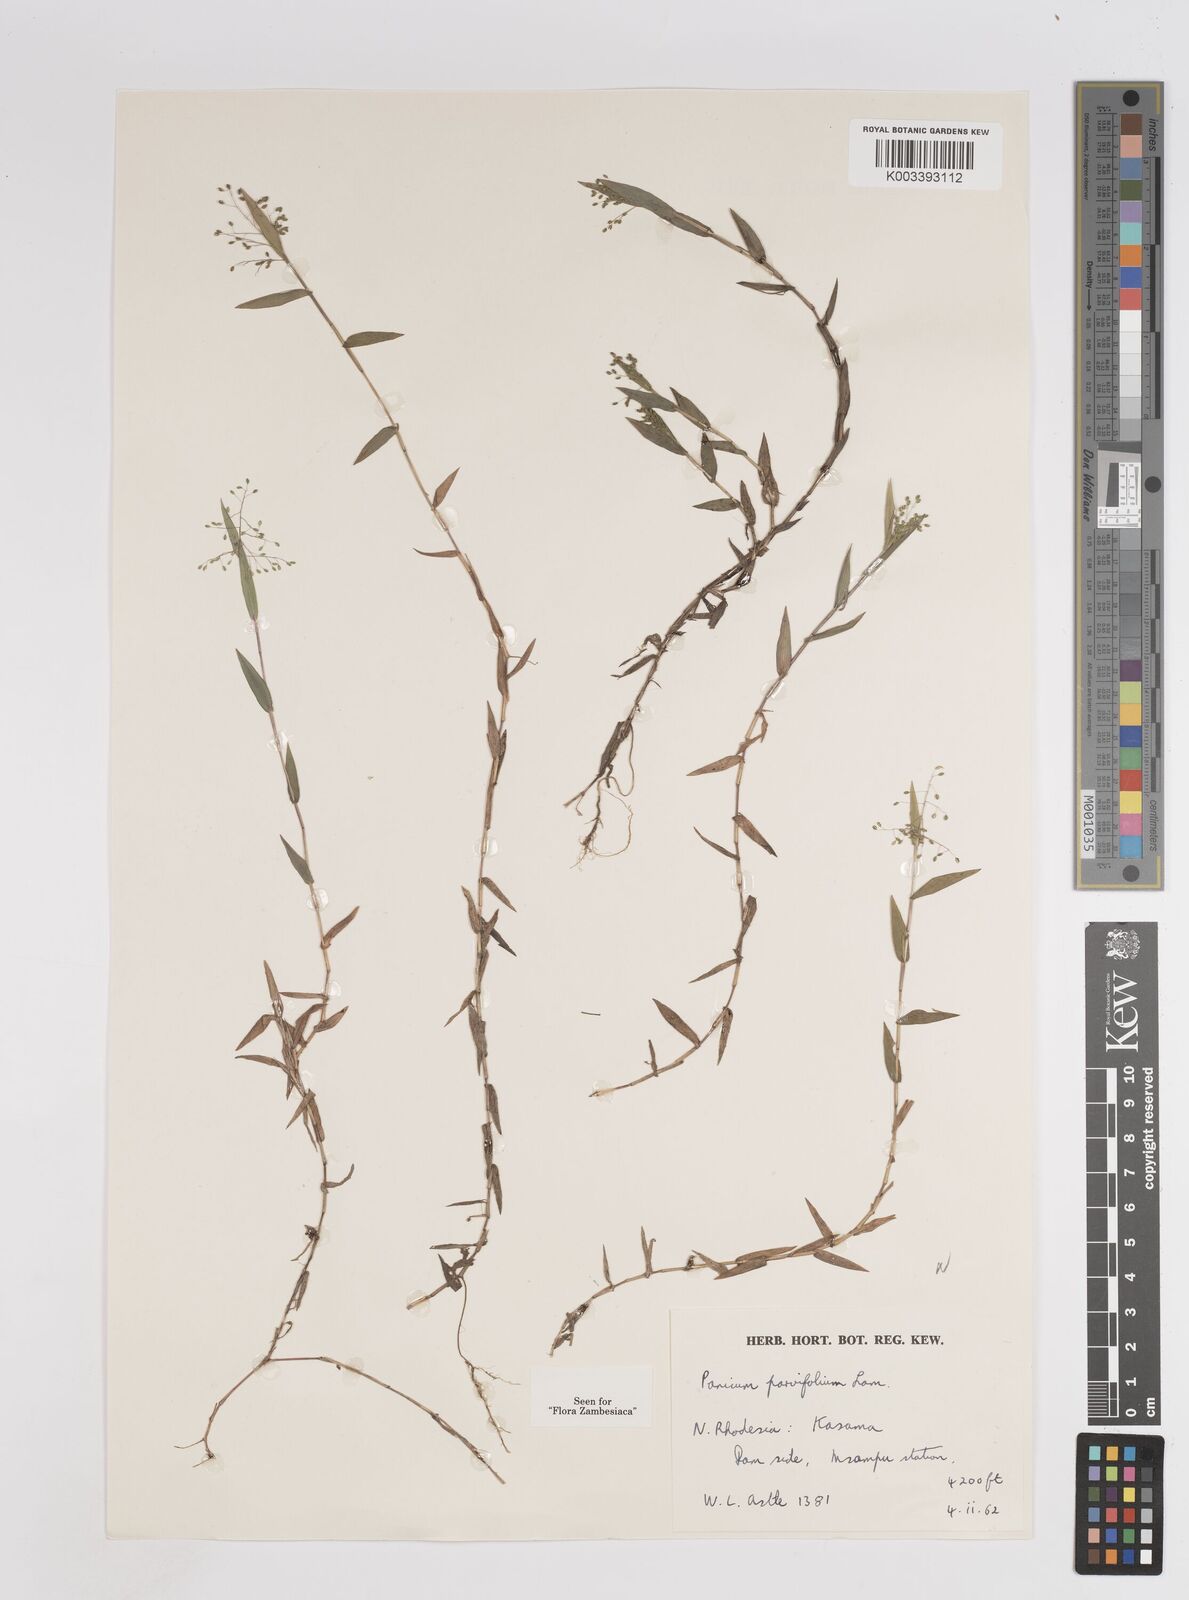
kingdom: Plantae
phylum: Tracheophyta
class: Liliopsida
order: Poales
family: Poaceae
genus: Trichanthecium
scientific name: Trichanthecium parvifolium
